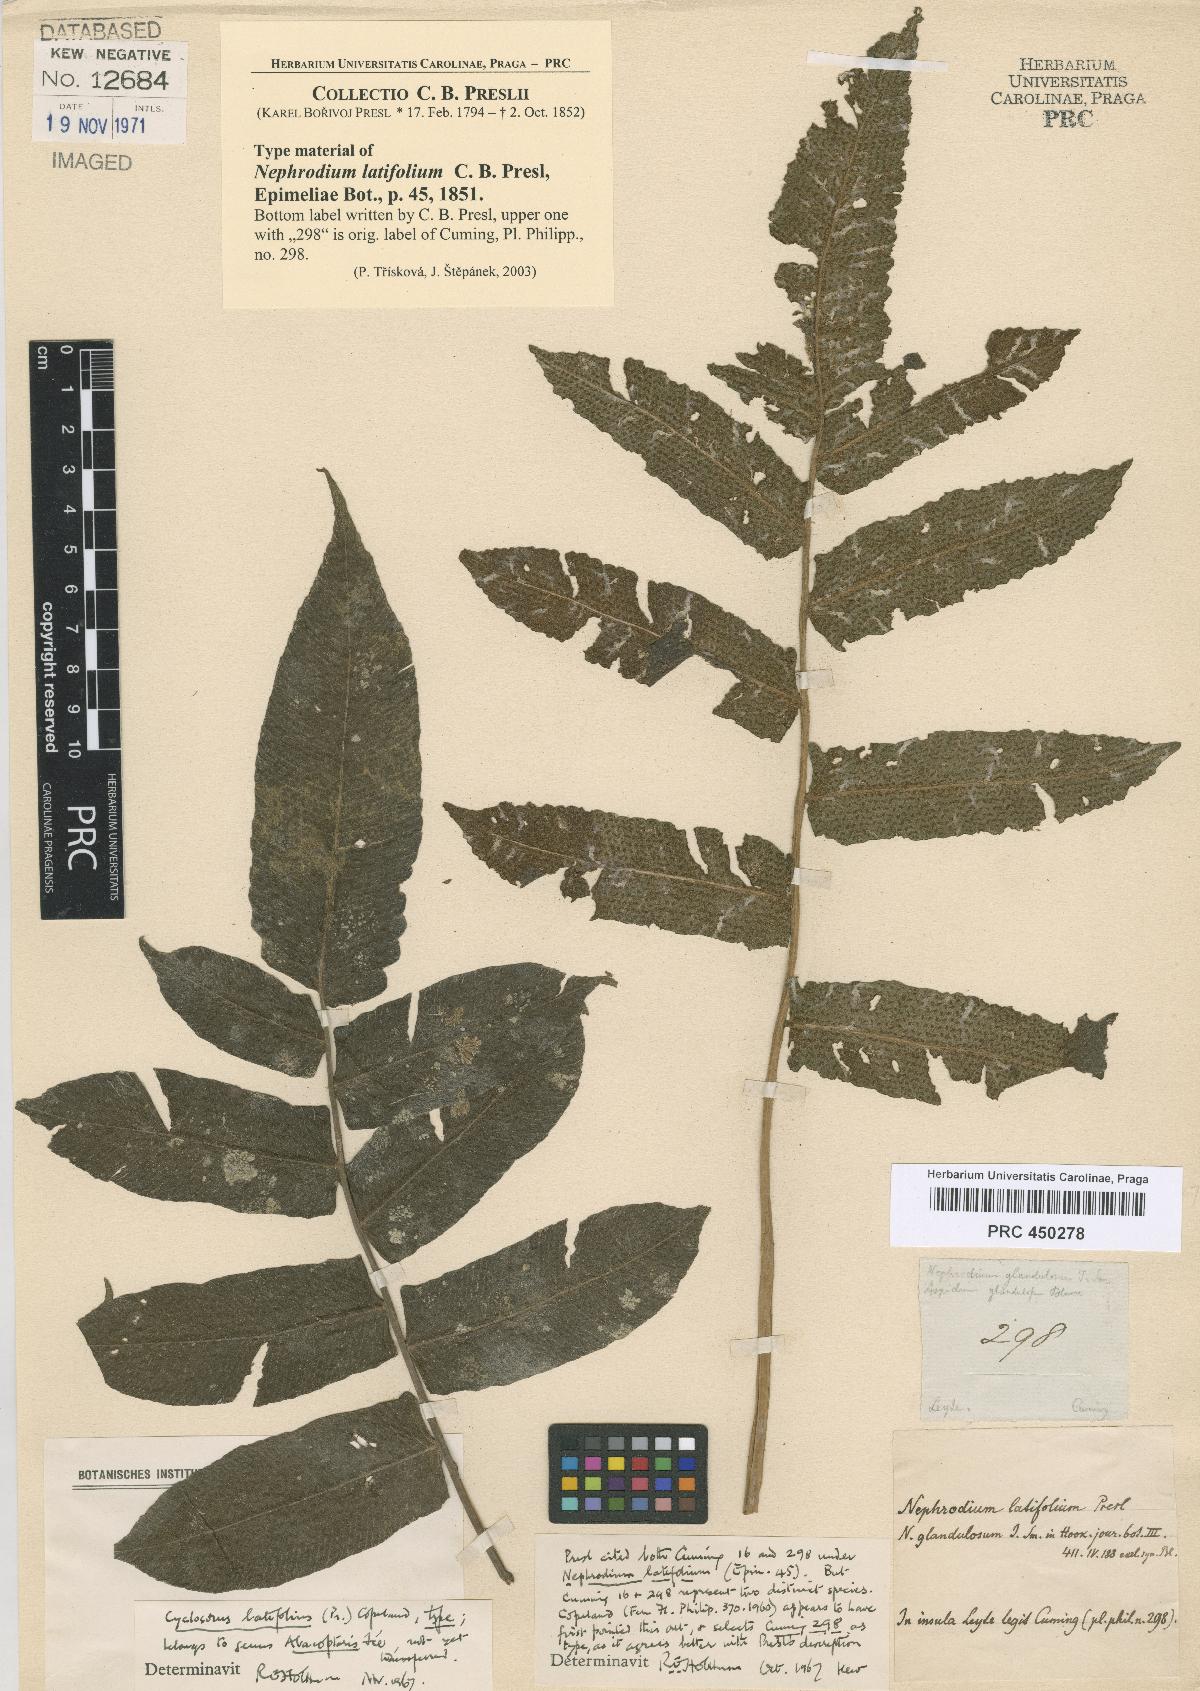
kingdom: Plantae
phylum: Tracheophyta
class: Polypodiopsida
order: Polypodiales
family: Thelypteridaceae
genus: Pronephrium
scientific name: Pronephrium menisciicarpon
